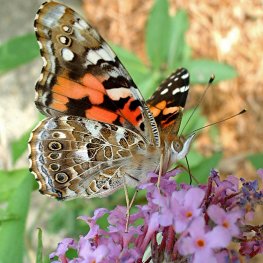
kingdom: Animalia
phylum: Arthropoda
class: Insecta
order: Lepidoptera
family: Nymphalidae
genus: Vanessa
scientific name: Vanessa cardui
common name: Painted Lady
